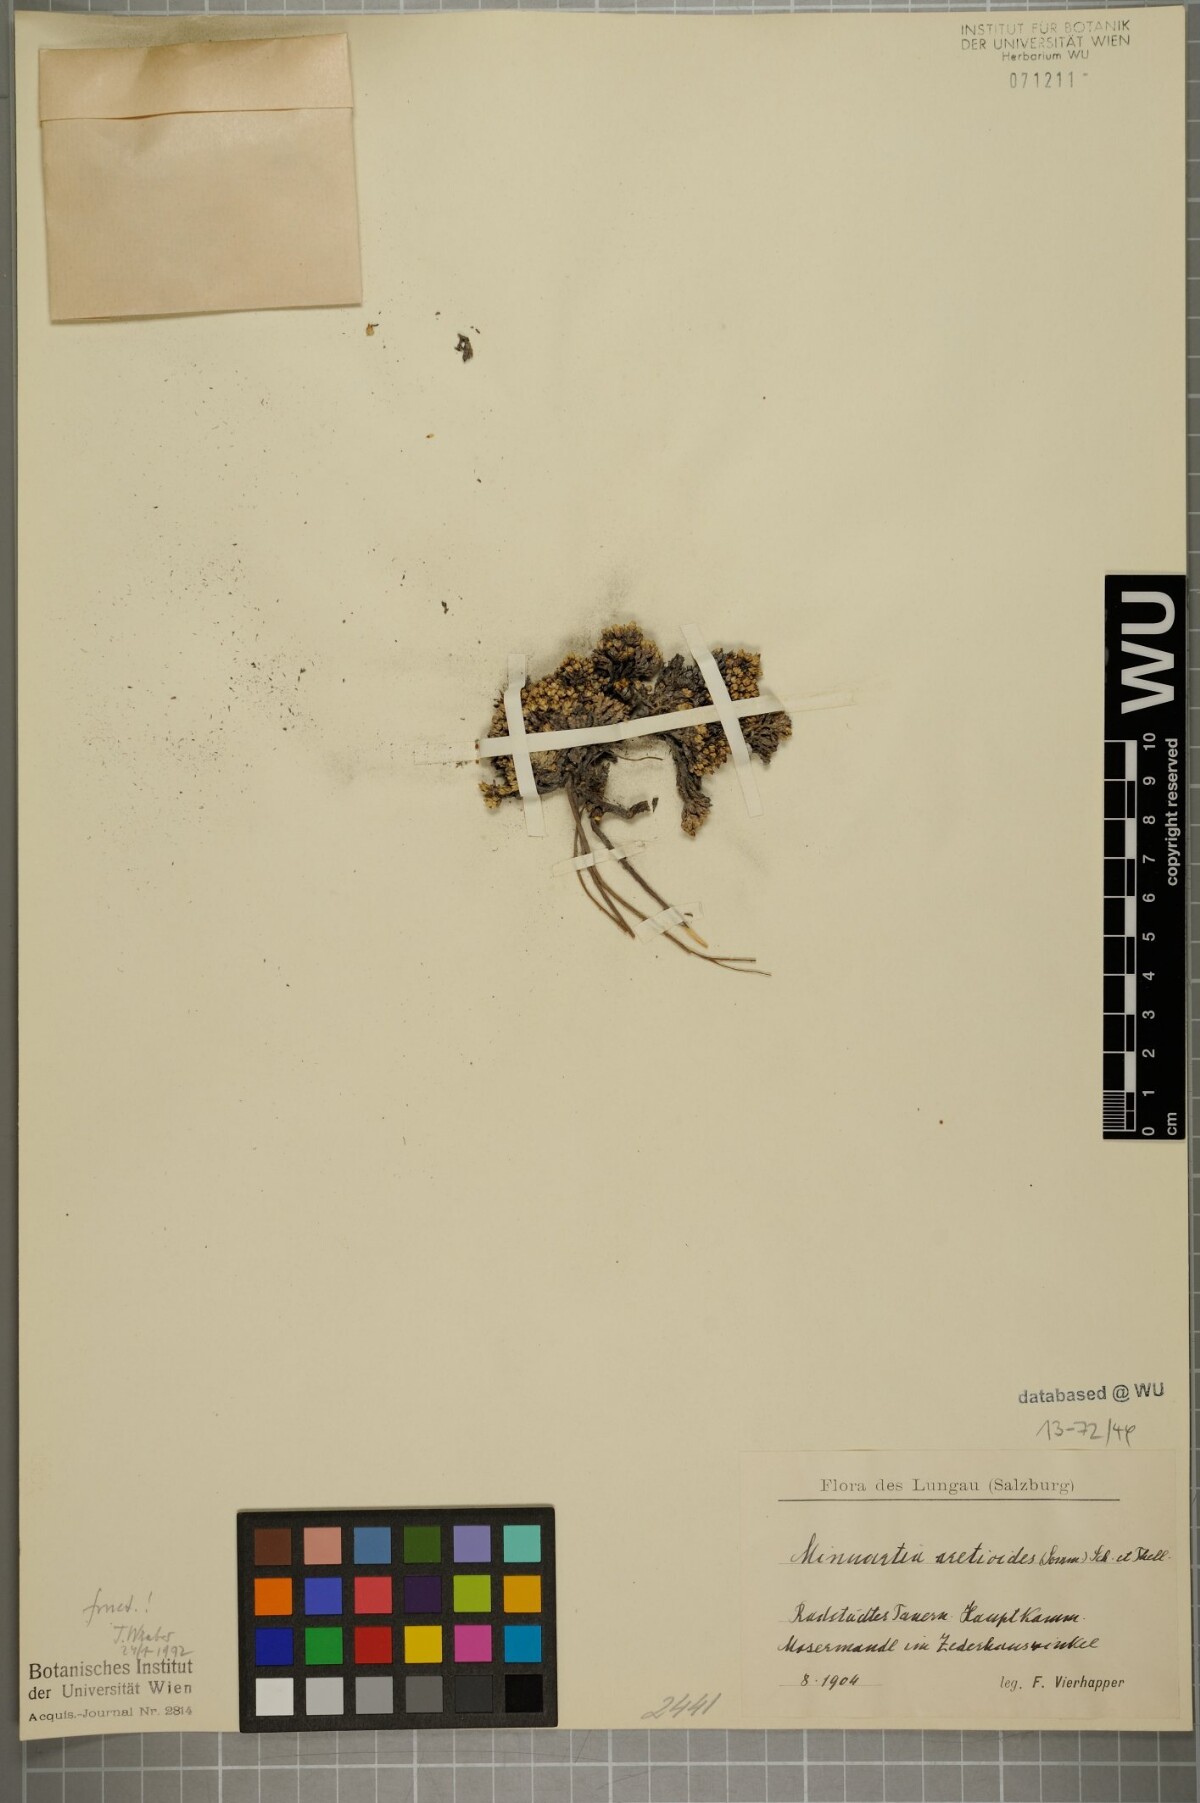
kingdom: Plantae
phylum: Tracheophyta
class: Magnoliopsida
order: Caryophyllales
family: Caryophyllaceae
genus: Facchinia
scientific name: Facchinia cherlerioides
